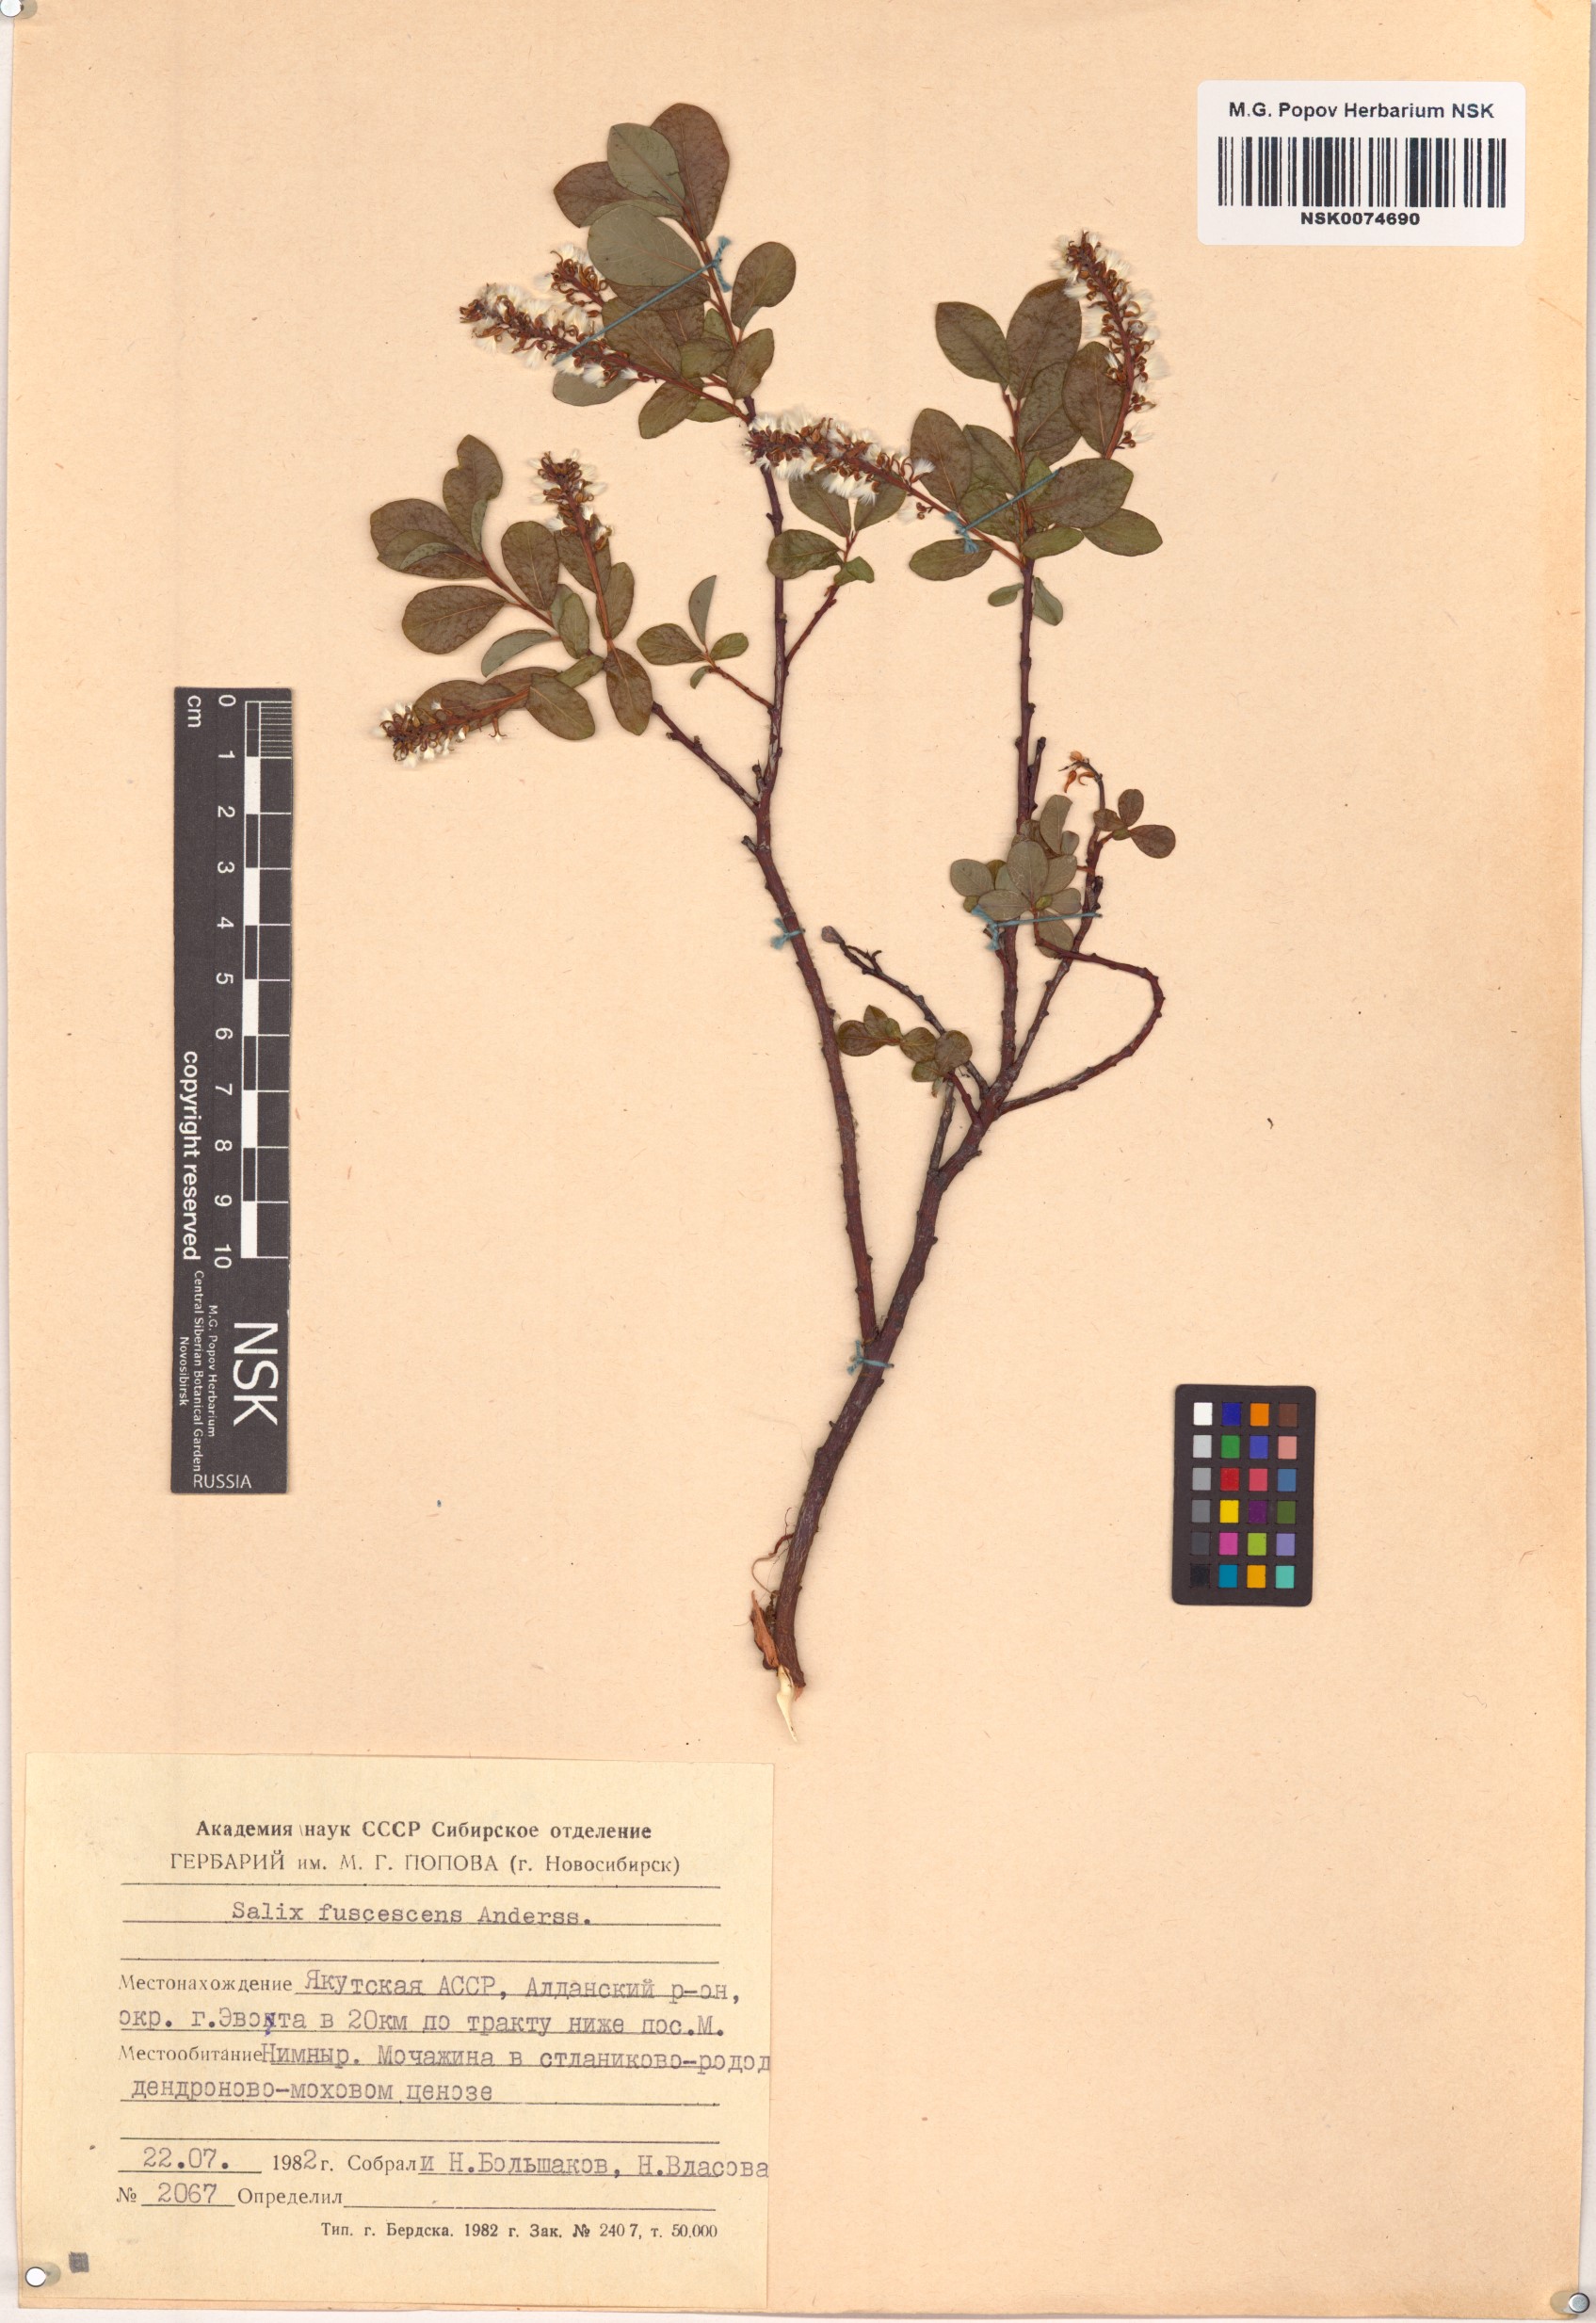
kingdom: Plantae
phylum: Tracheophyta
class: Magnoliopsida
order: Malpighiales
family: Salicaceae
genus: Salix
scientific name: Salix fuscescens
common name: Brownish willow
